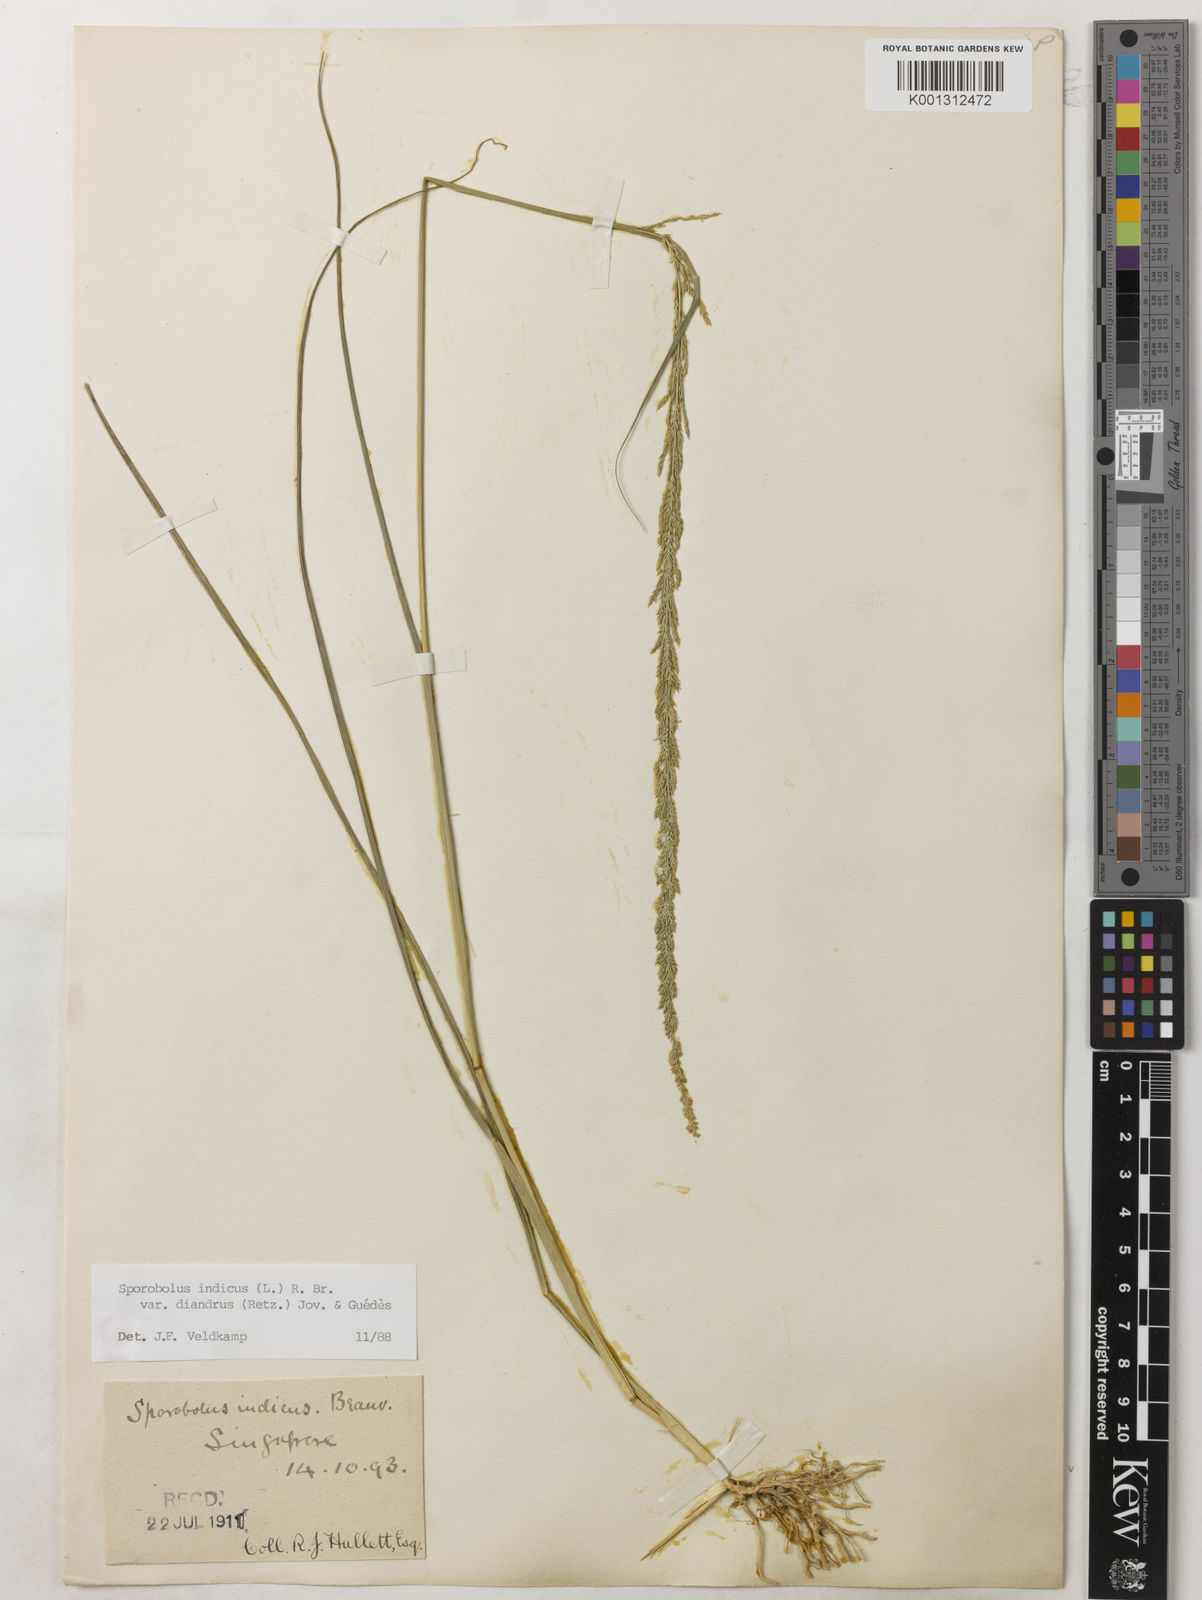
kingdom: Plantae
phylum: Tracheophyta
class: Liliopsida
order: Poales
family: Poaceae
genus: Sporobolus
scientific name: Sporobolus diandrus
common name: Tussock dropseed
